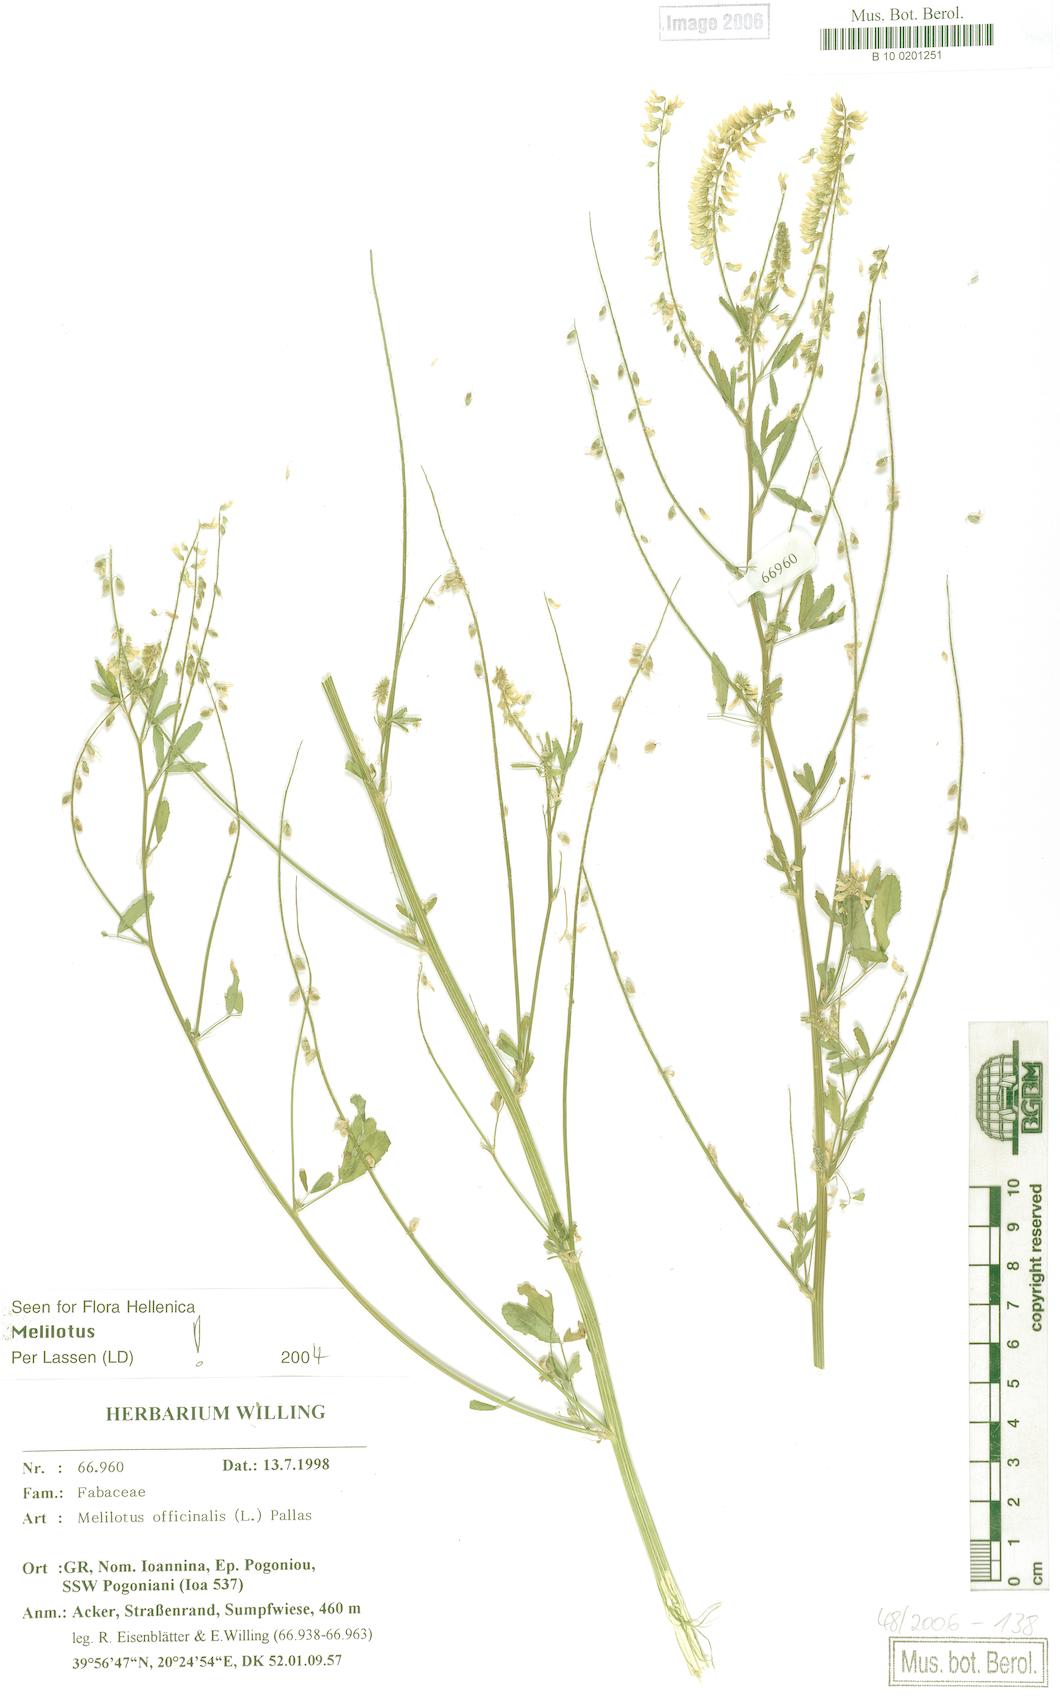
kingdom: Plantae
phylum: Tracheophyta
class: Magnoliopsida
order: Fabales
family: Fabaceae
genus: Melilotus
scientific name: Melilotus officinalis
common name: Sweetclover
